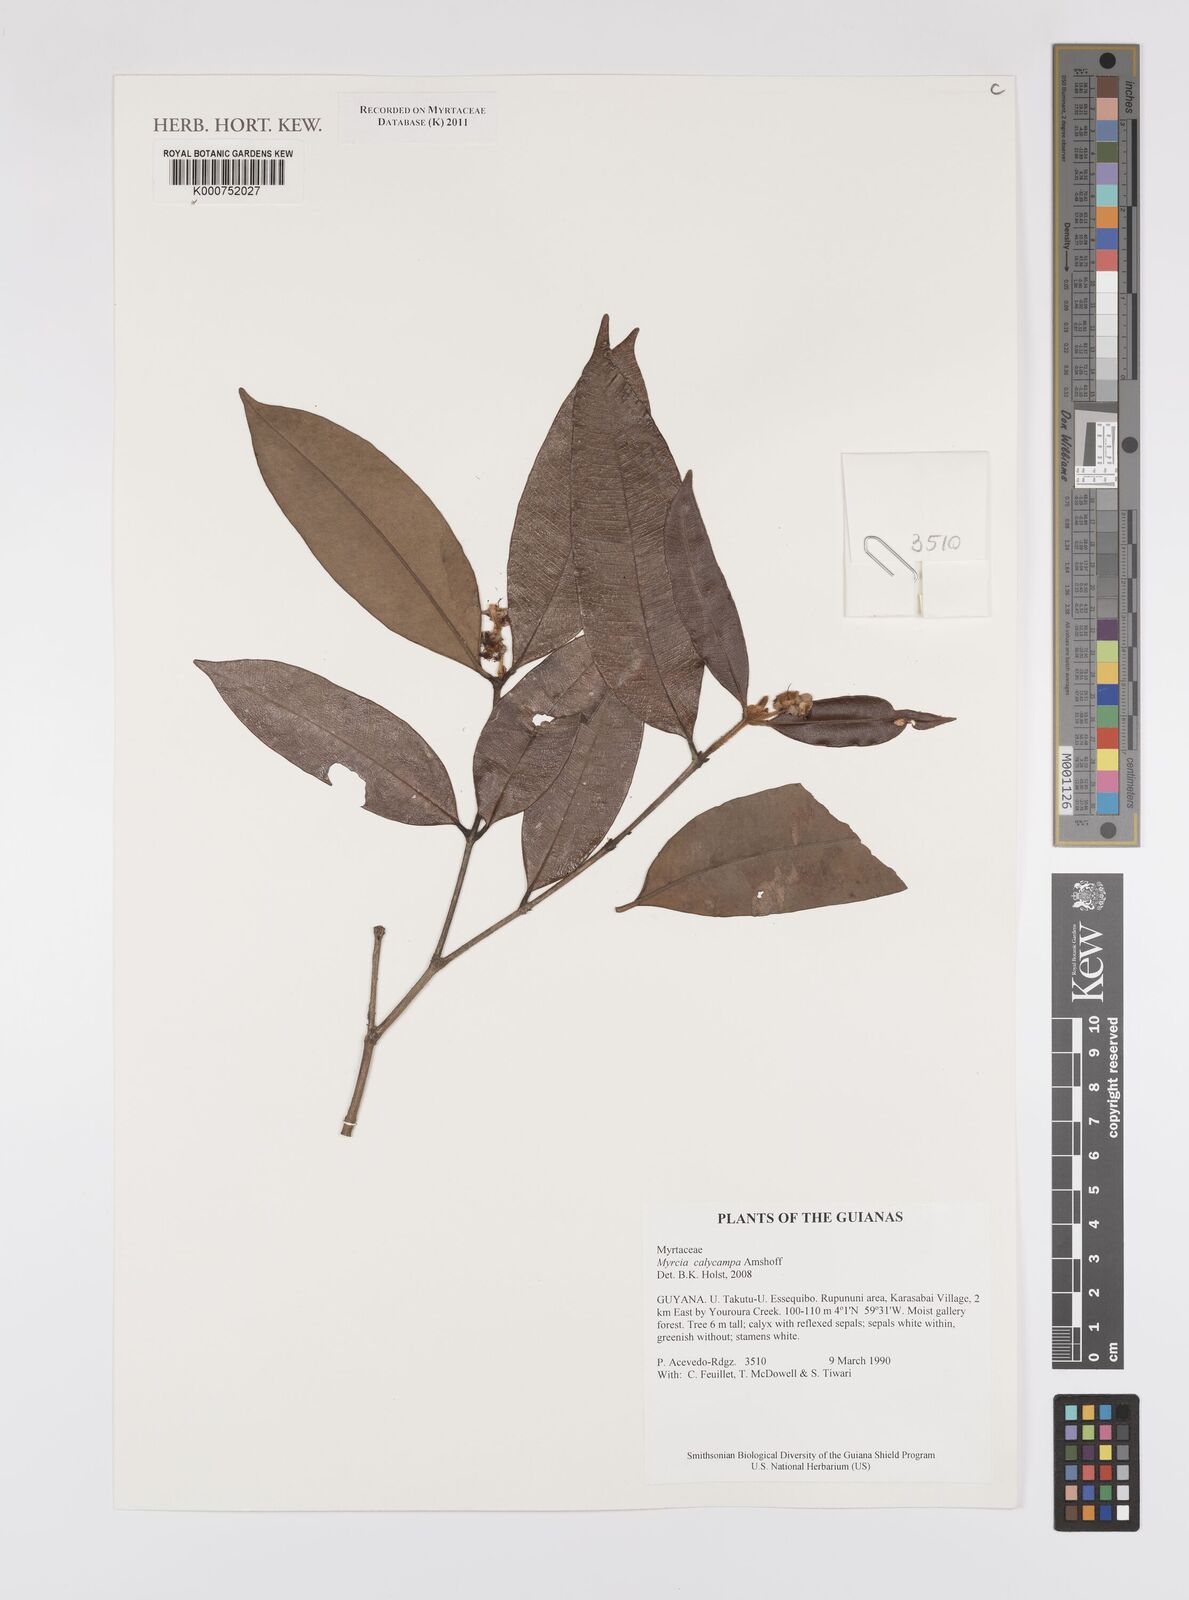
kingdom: Plantae
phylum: Tracheophyta
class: Magnoliopsida
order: Myrtales
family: Myrtaceae
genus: Myrcia
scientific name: Myrcia calycampa
